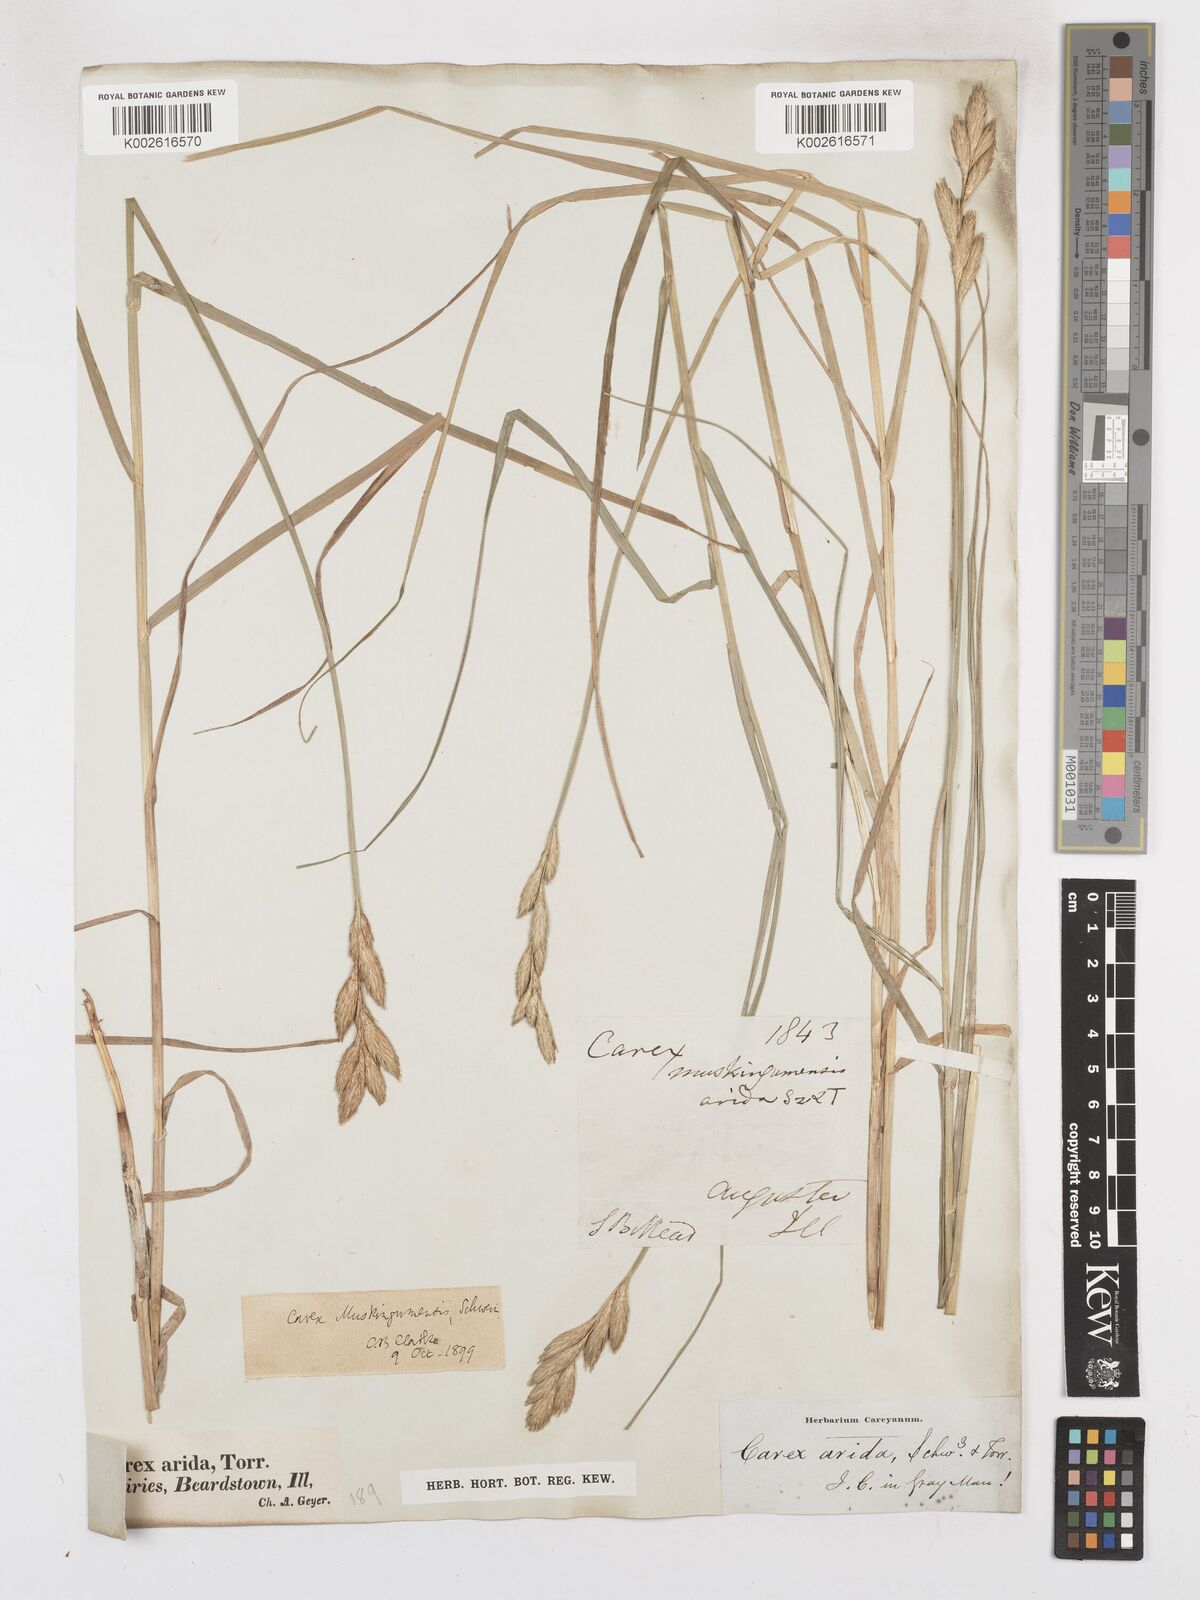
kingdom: Plantae
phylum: Tracheophyta
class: Liliopsida
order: Poales
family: Cyperaceae
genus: Carex
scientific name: Carex muskingumensis
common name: Muskingum sedge
